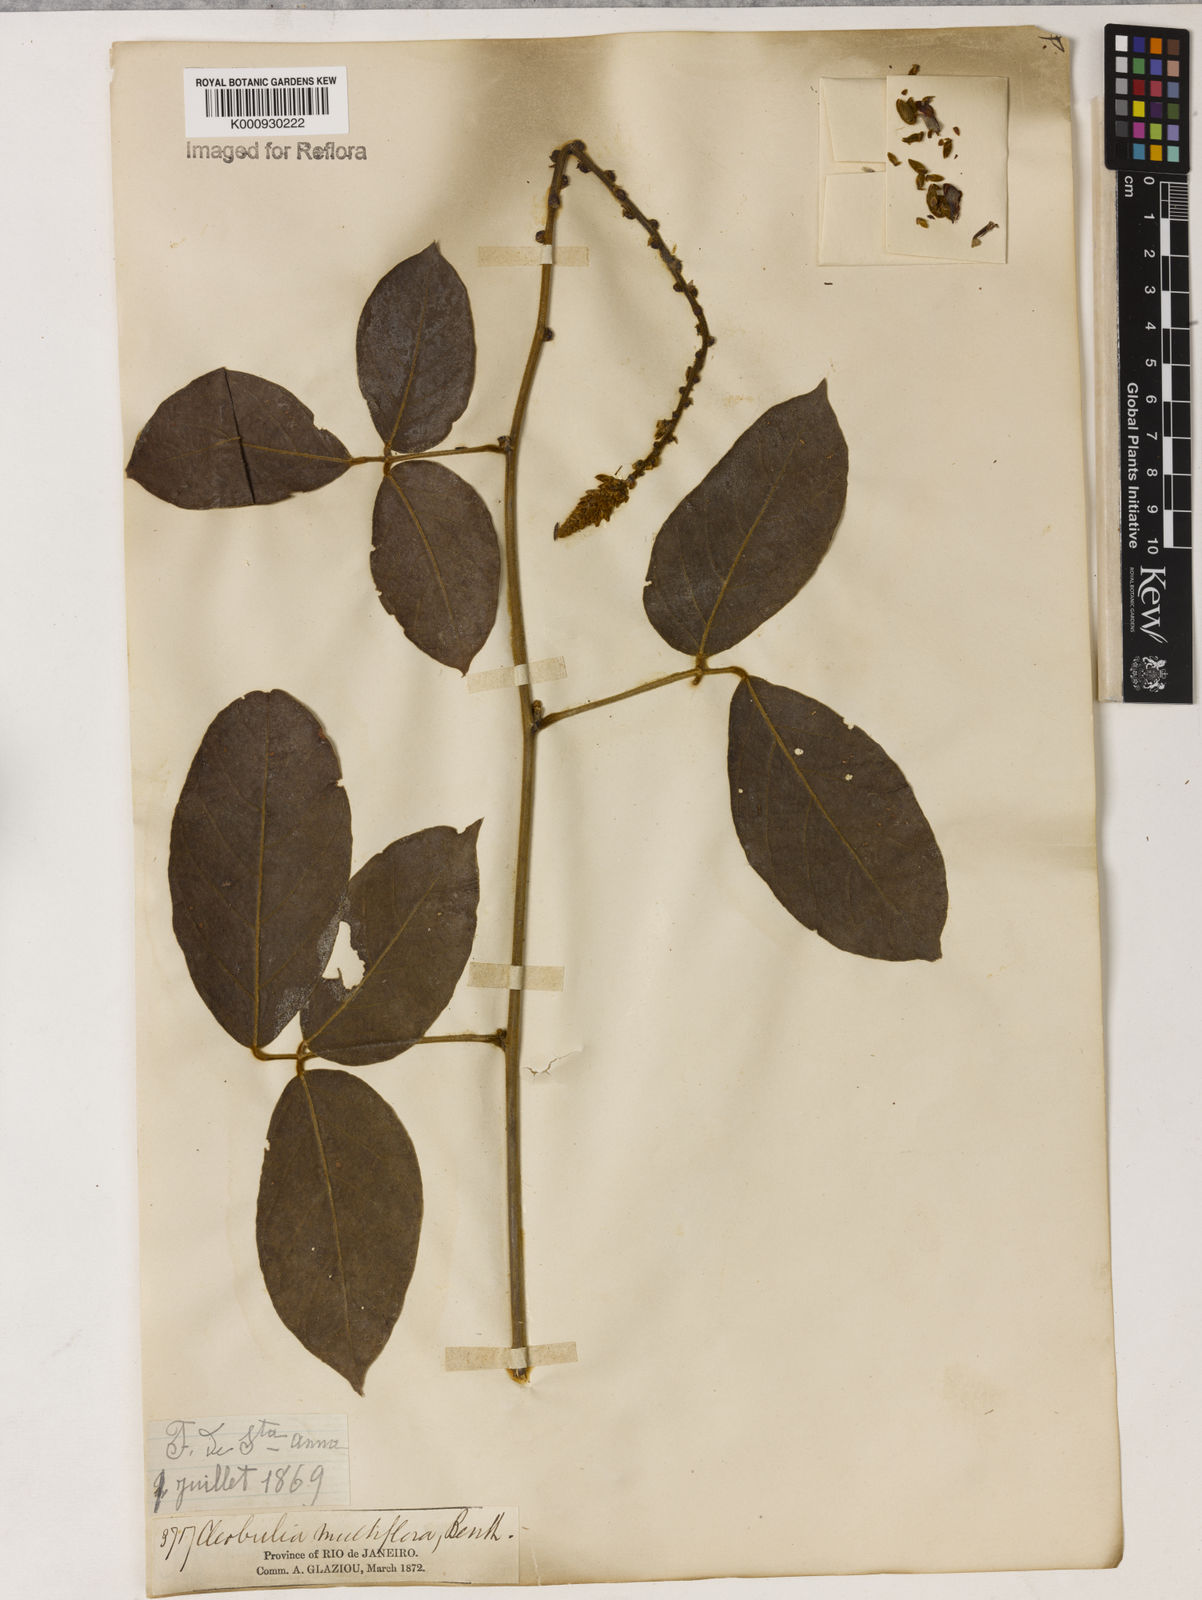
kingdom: Plantae
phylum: Tracheophyta
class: Magnoliopsida
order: Fabales
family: Fabaceae
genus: Cleobulia
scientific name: Cleobulia coccinea
